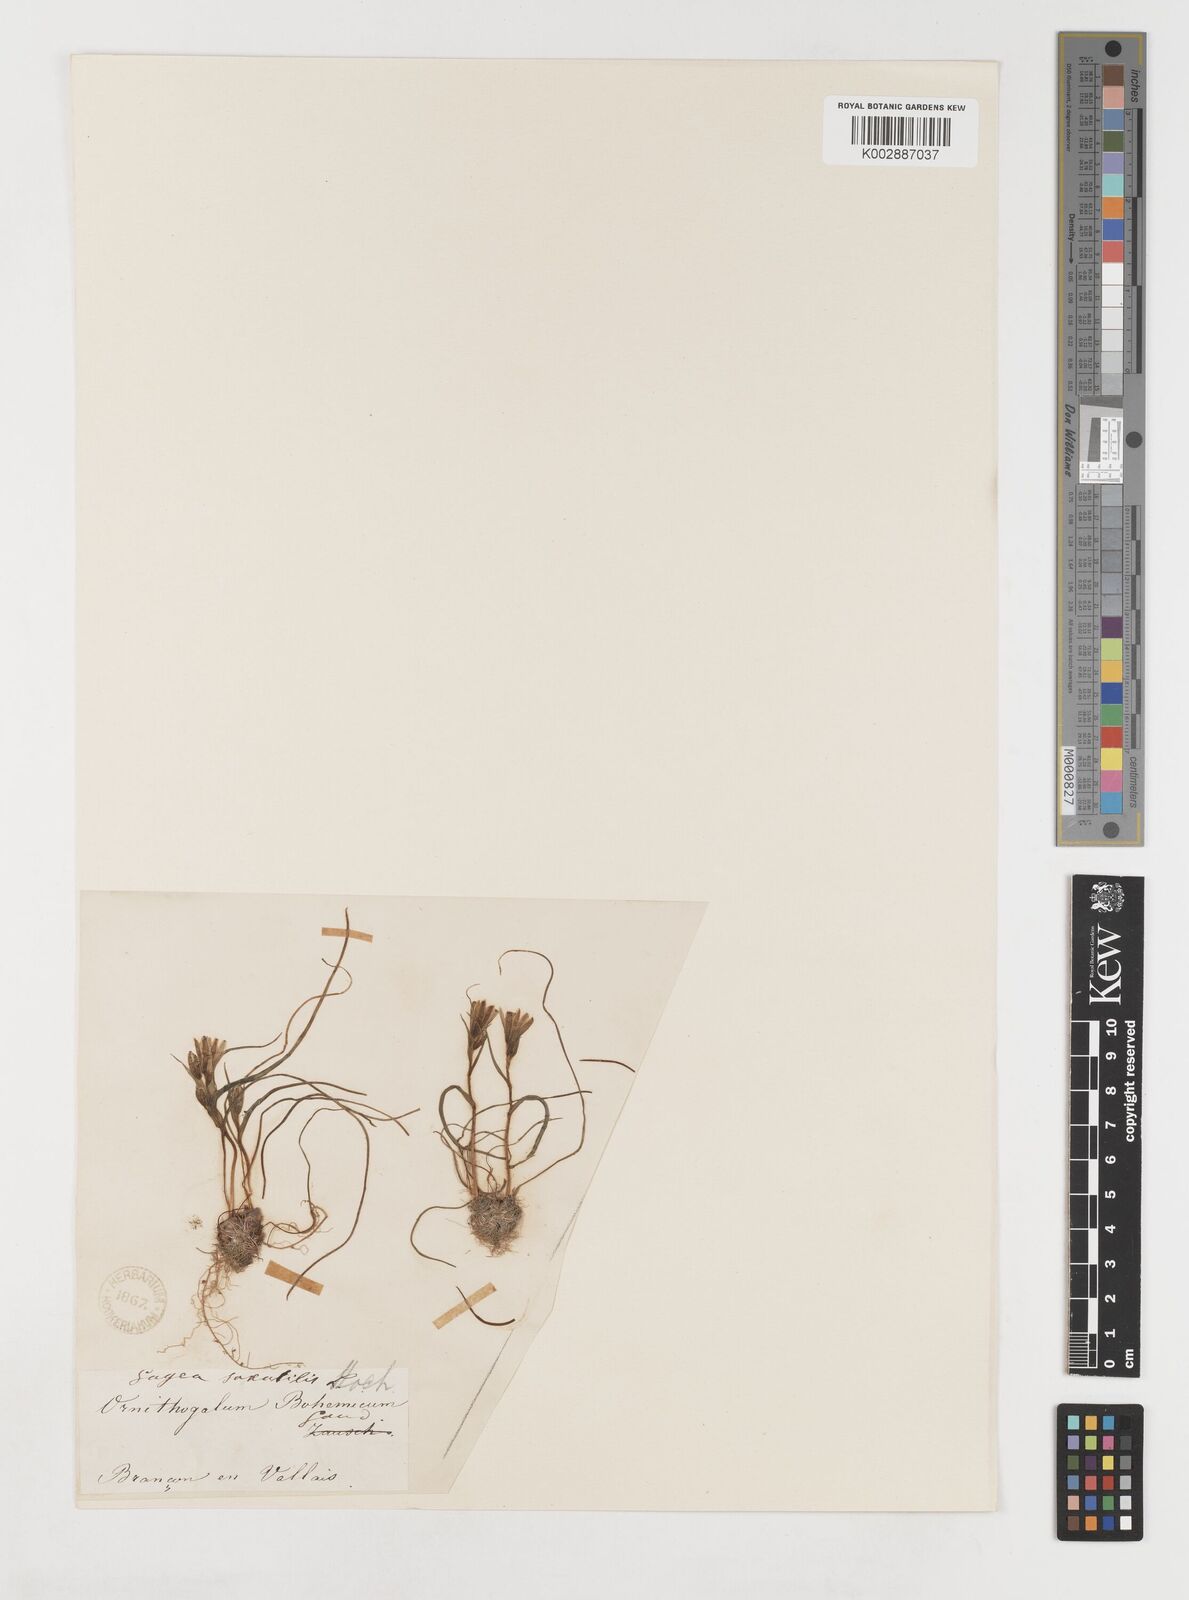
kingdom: Plantae
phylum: Tracheophyta
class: Liliopsida
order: Liliales
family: Liliaceae
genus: Gagea
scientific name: Gagea bohemica
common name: Early star-of-bethlehem
